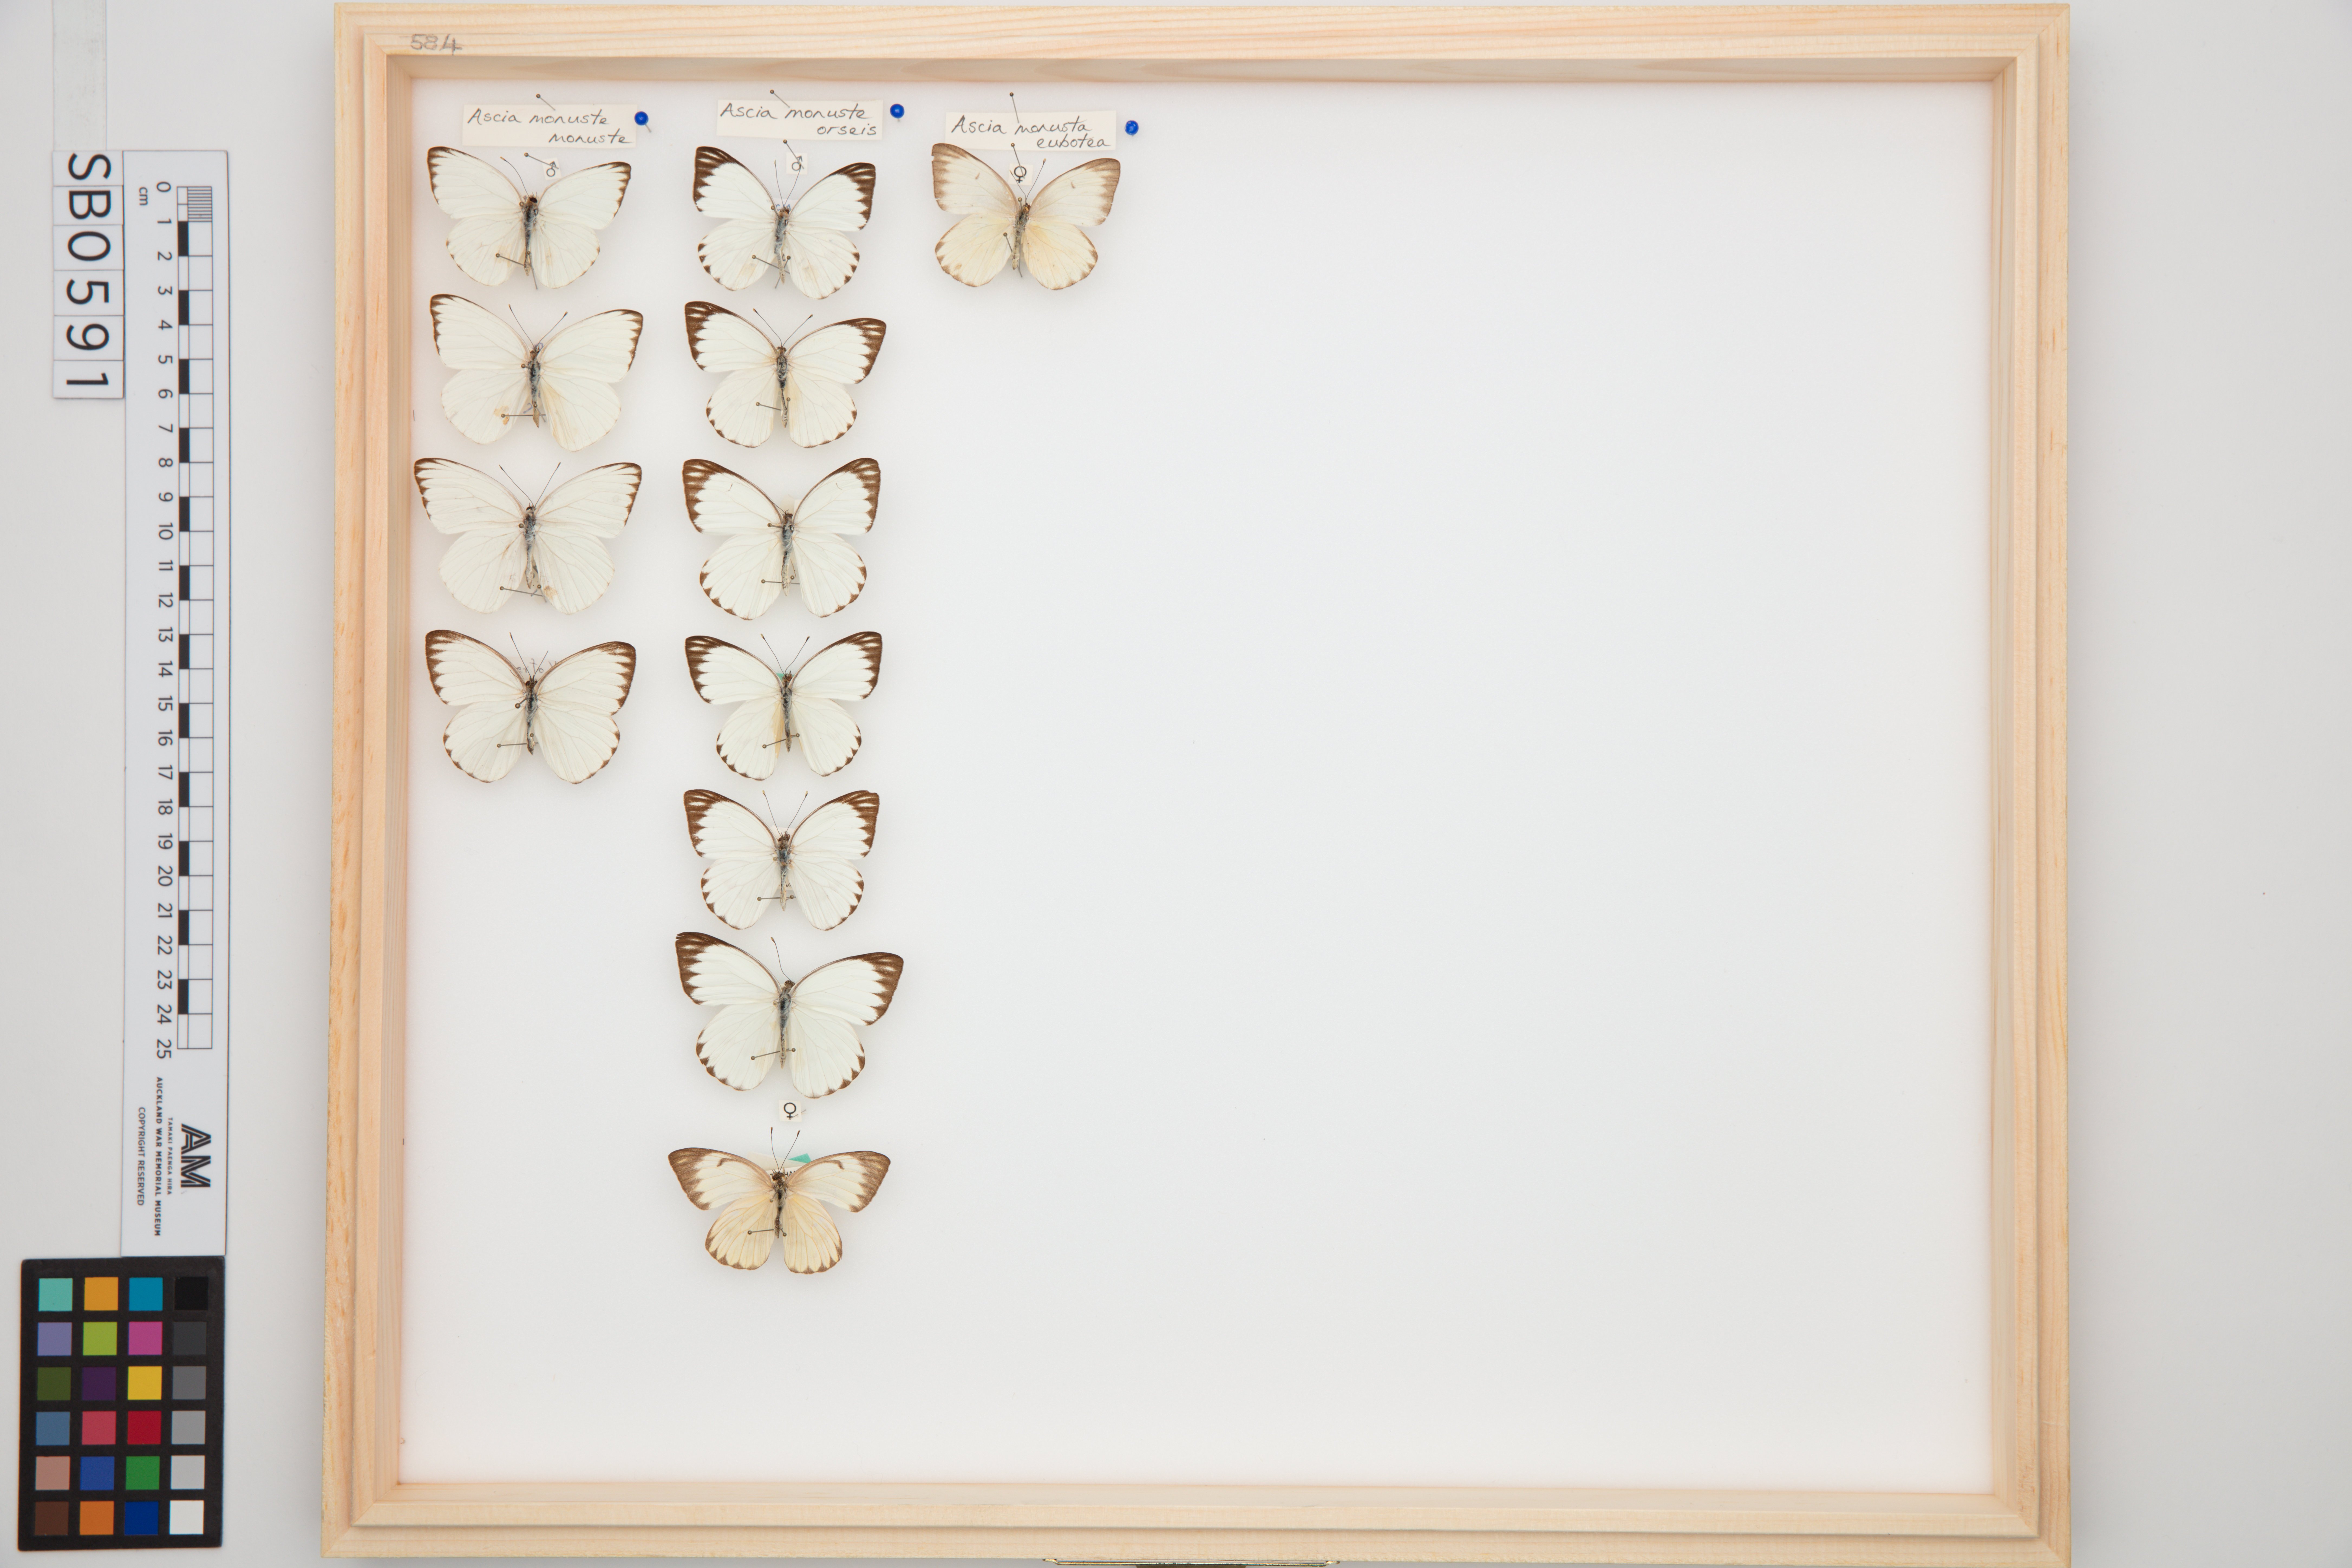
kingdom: Animalia
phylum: Arthropoda
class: Insecta
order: Lepidoptera
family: Pieridae
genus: Ascia
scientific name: Ascia monuste
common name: Great southern white
